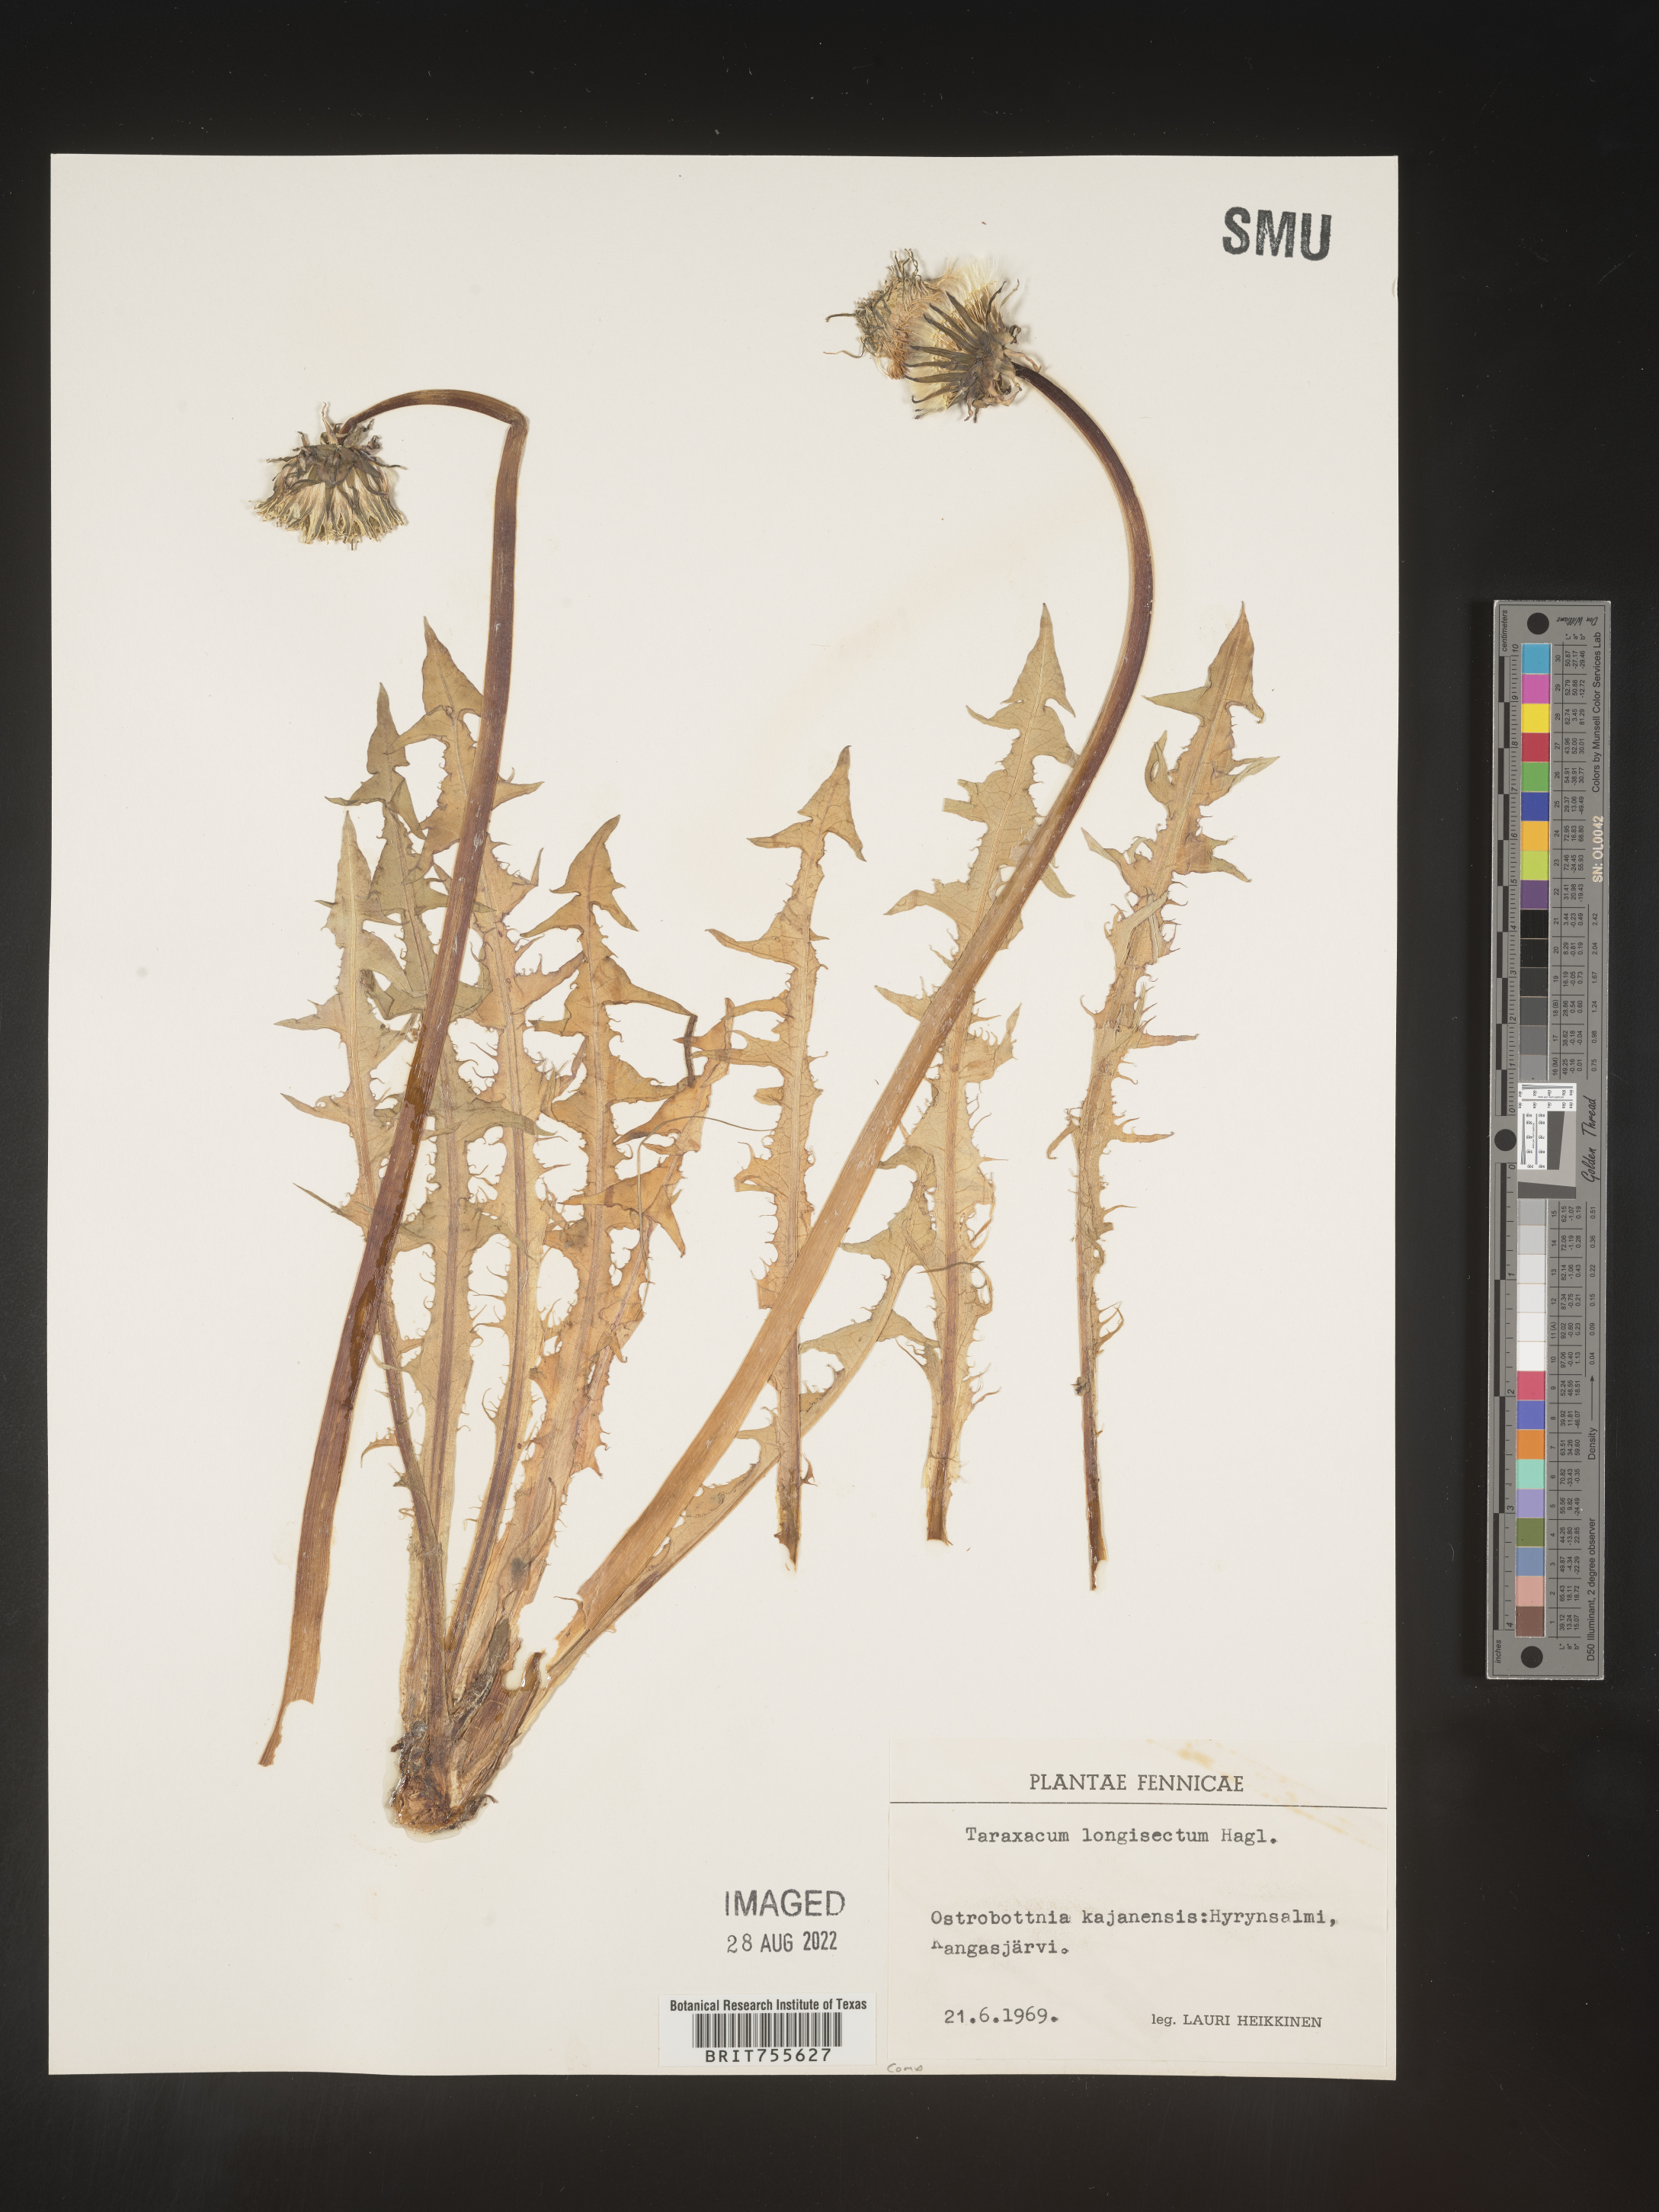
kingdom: Plantae
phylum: Tracheophyta
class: Magnoliopsida
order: Asterales
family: Asteraceae
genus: Taraxacum
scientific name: Taraxacum
